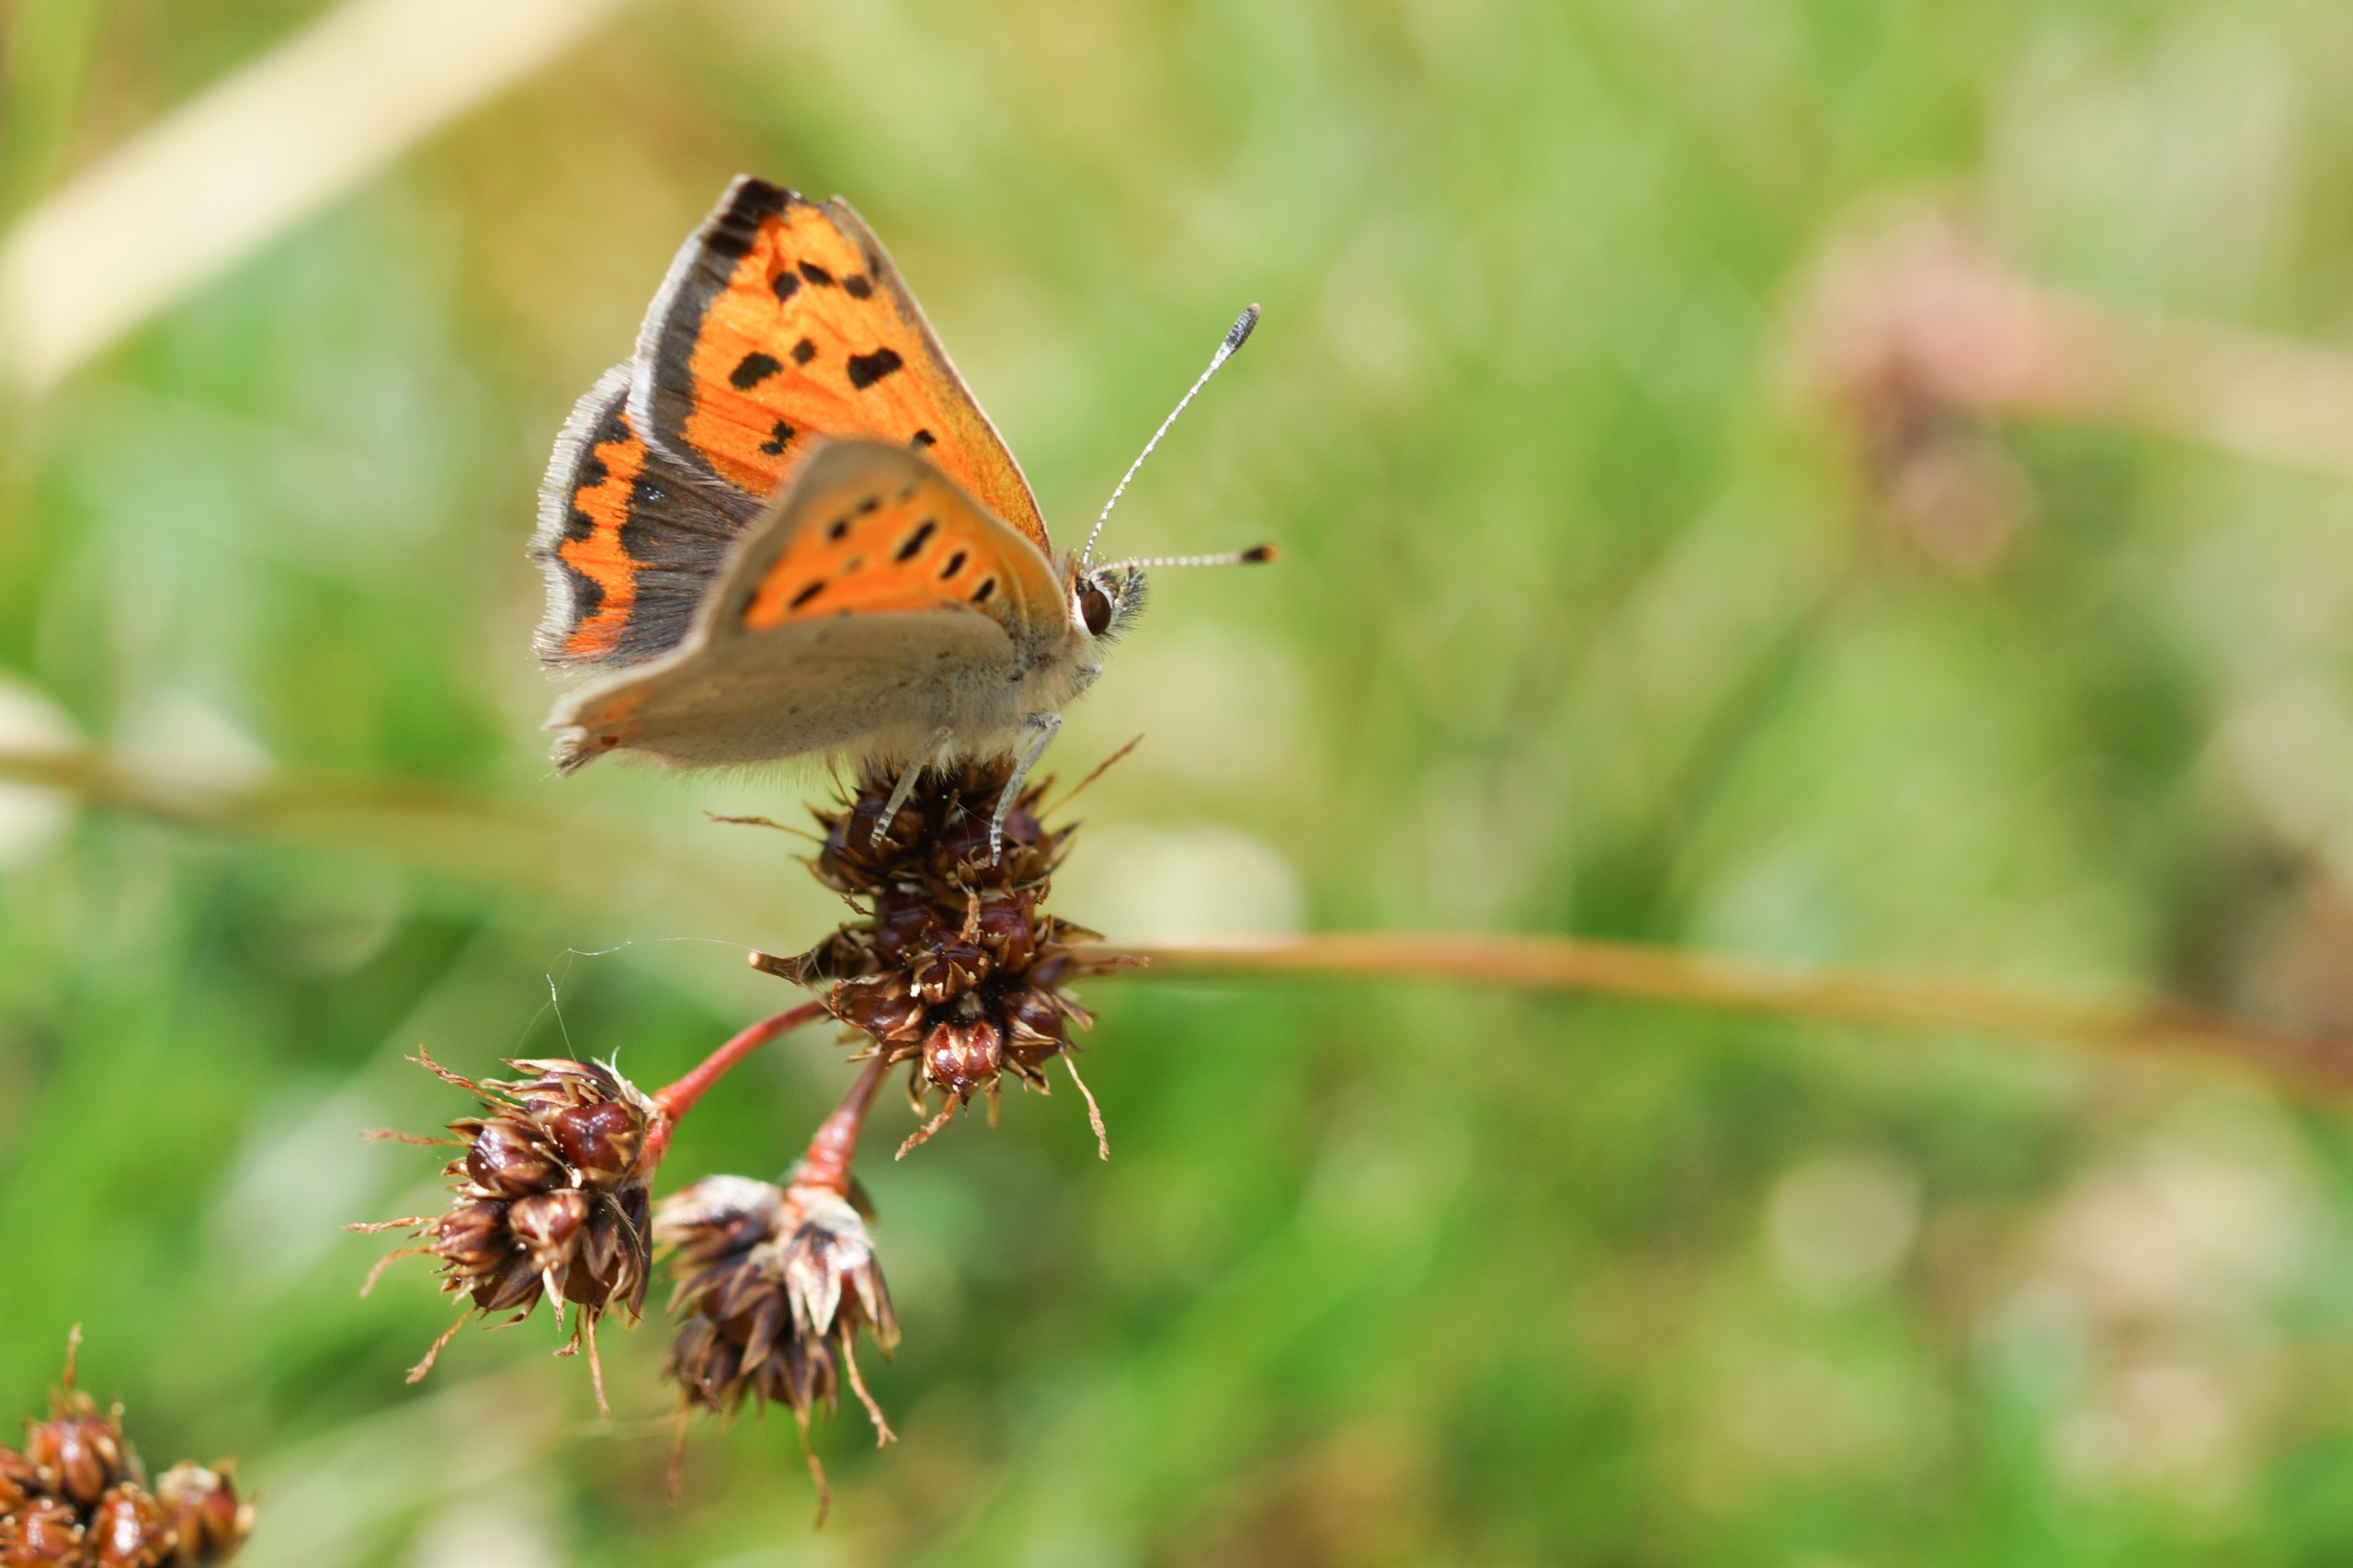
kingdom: Animalia
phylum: Arthropoda
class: Insecta
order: Lepidoptera
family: Lycaenidae
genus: Lycaena
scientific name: Lycaena phlaeas
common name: Lille ildfugl
